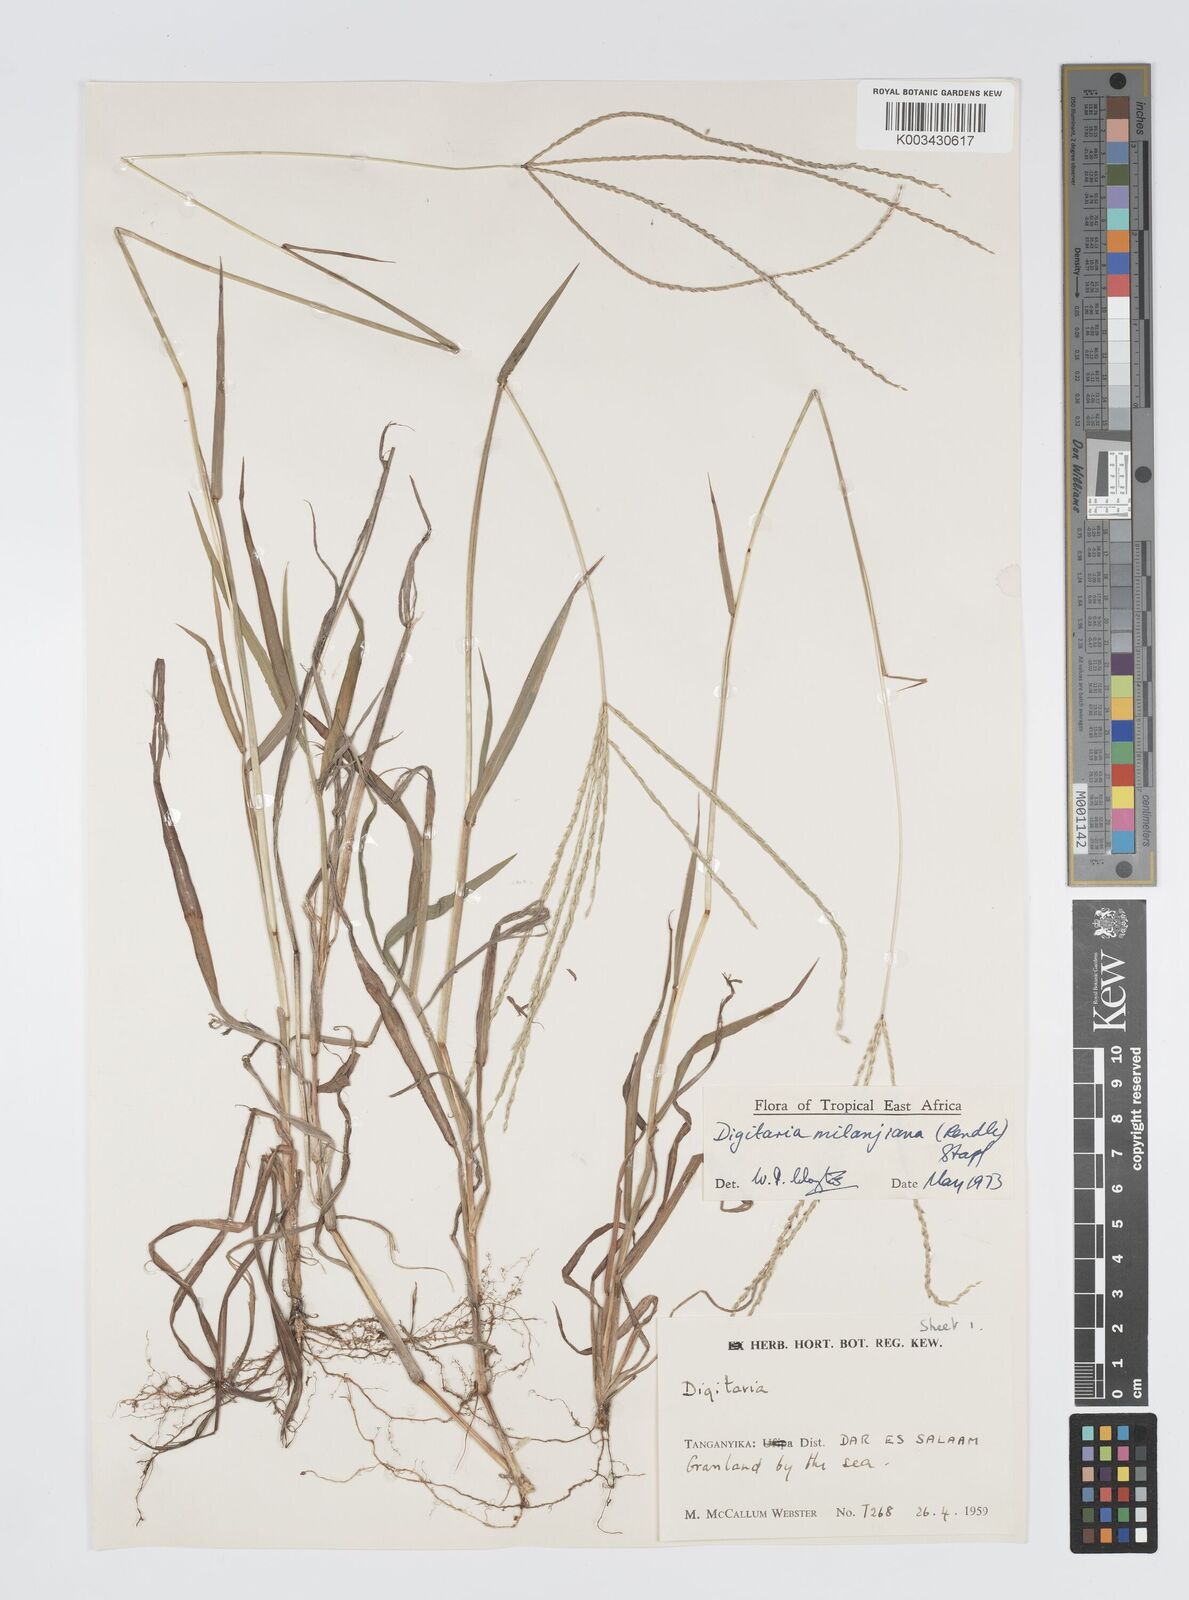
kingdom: Plantae
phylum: Tracheophyta
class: Liliopsida
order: Poales
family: Poaceae
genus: Digitaria
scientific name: Digitaria milanjiana
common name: Madagascar crabgrass
